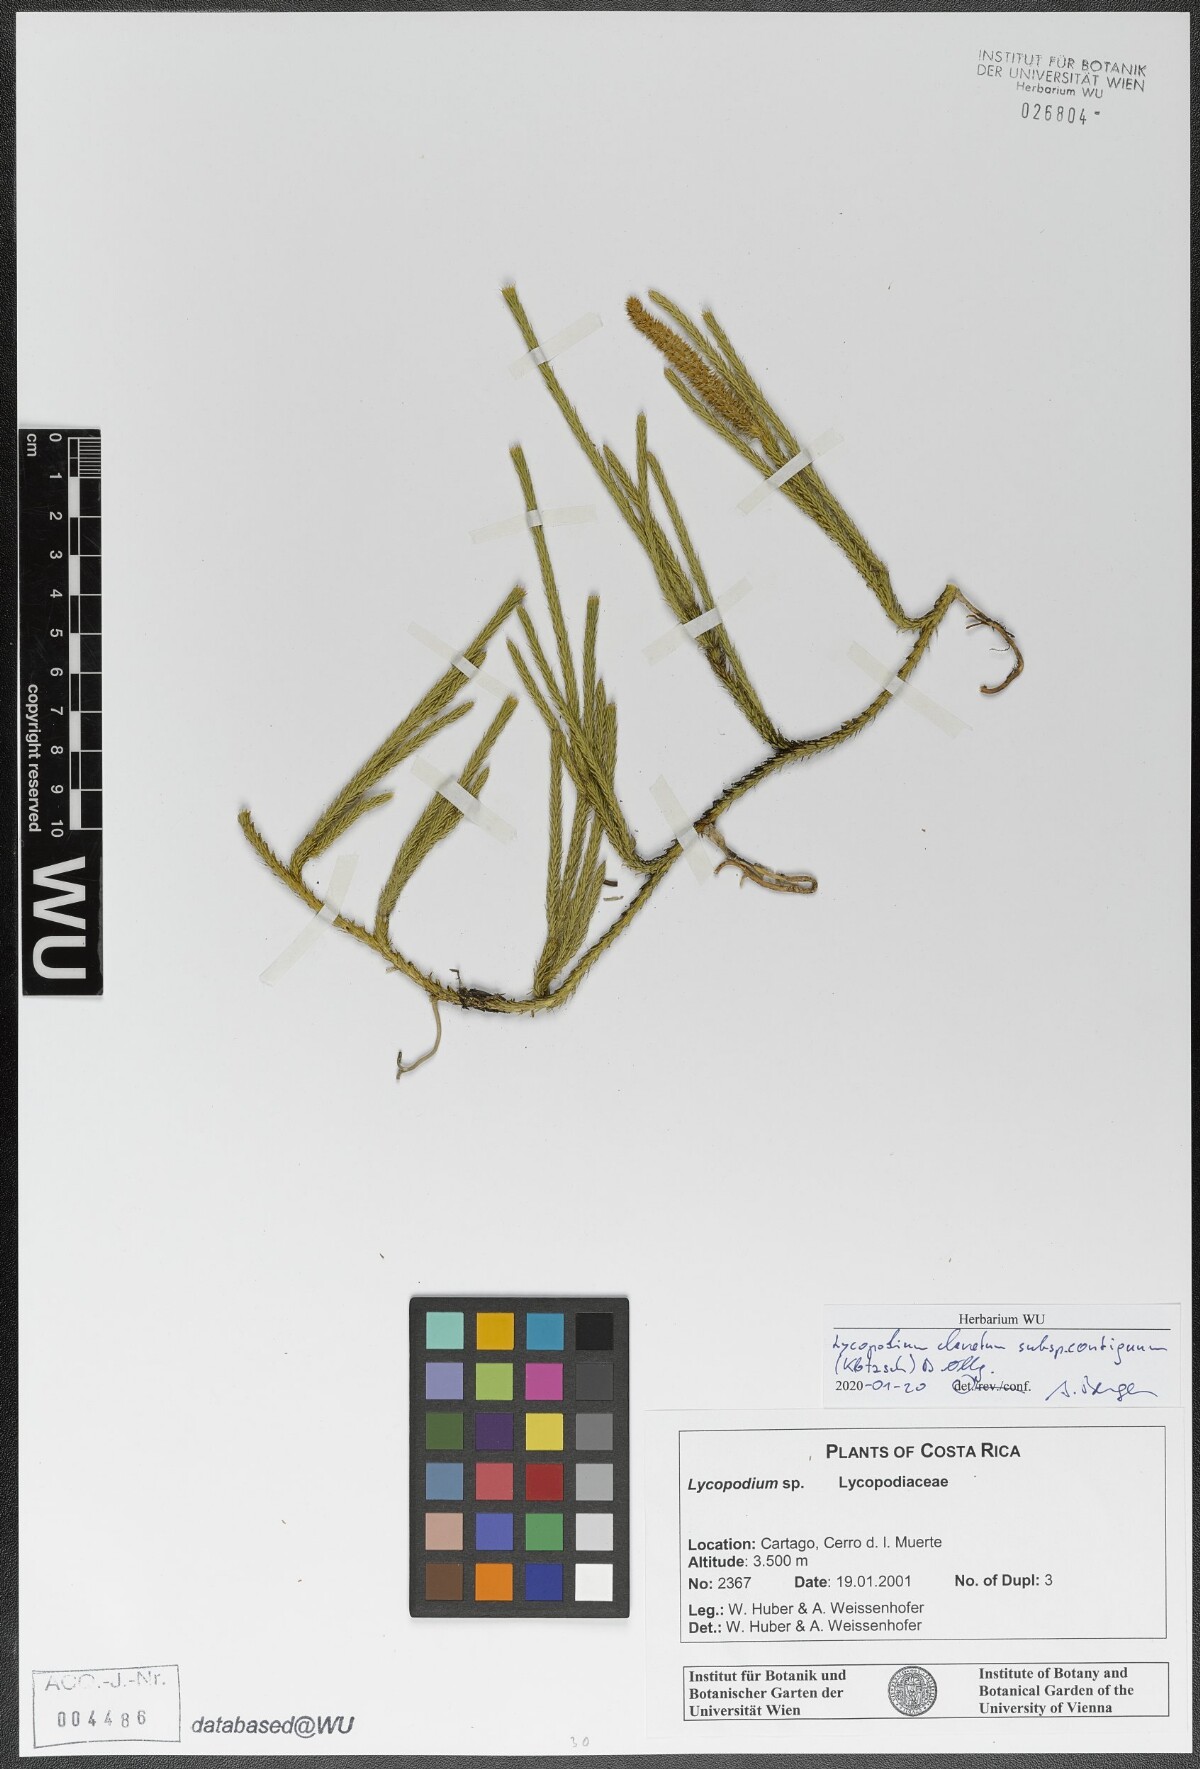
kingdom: Plantae
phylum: Tracheophyta
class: Lycopodiopsida
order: Lycopodiales
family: Lycopodiaceae
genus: Lycopodium
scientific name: Lycopodium clavatum
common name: Stag's-horn clubmoss
